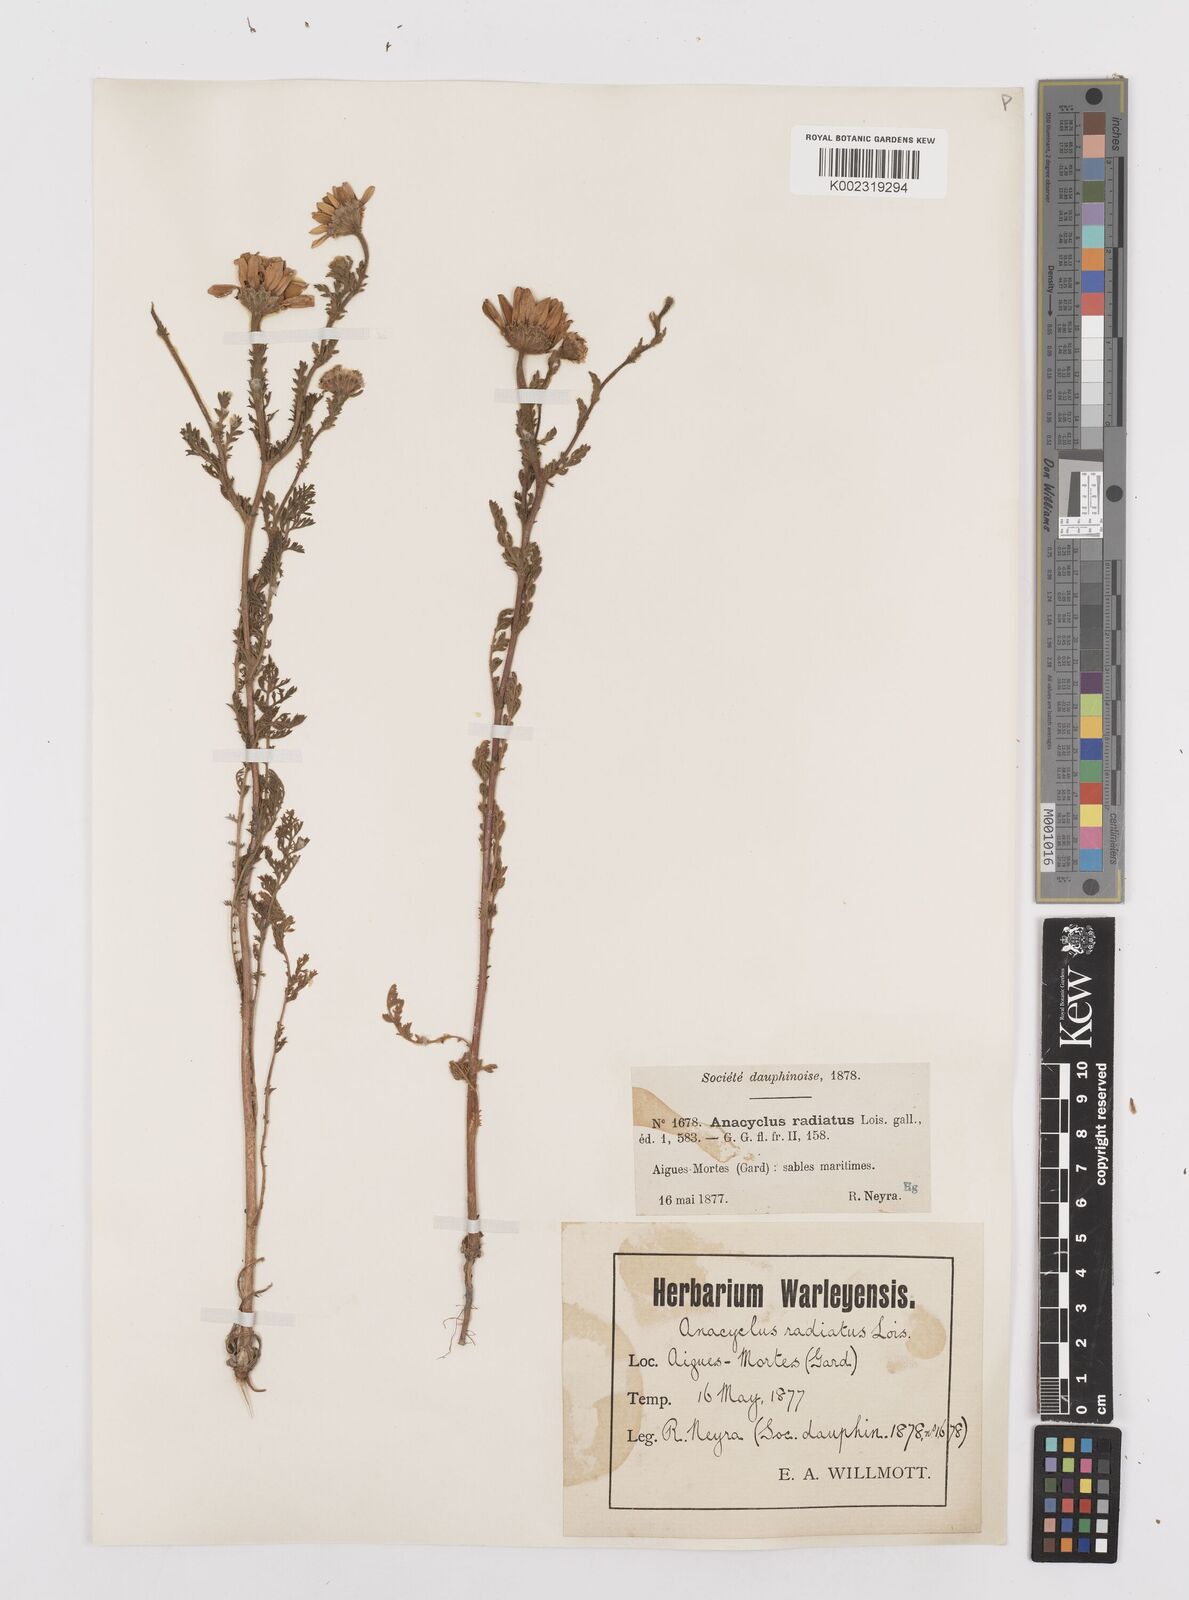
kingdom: Plantae
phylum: Tracheophyta
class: Magnoliopsida
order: Asterales
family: Asteraceae
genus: Anacyclus
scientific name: Anacyclus radiatus
